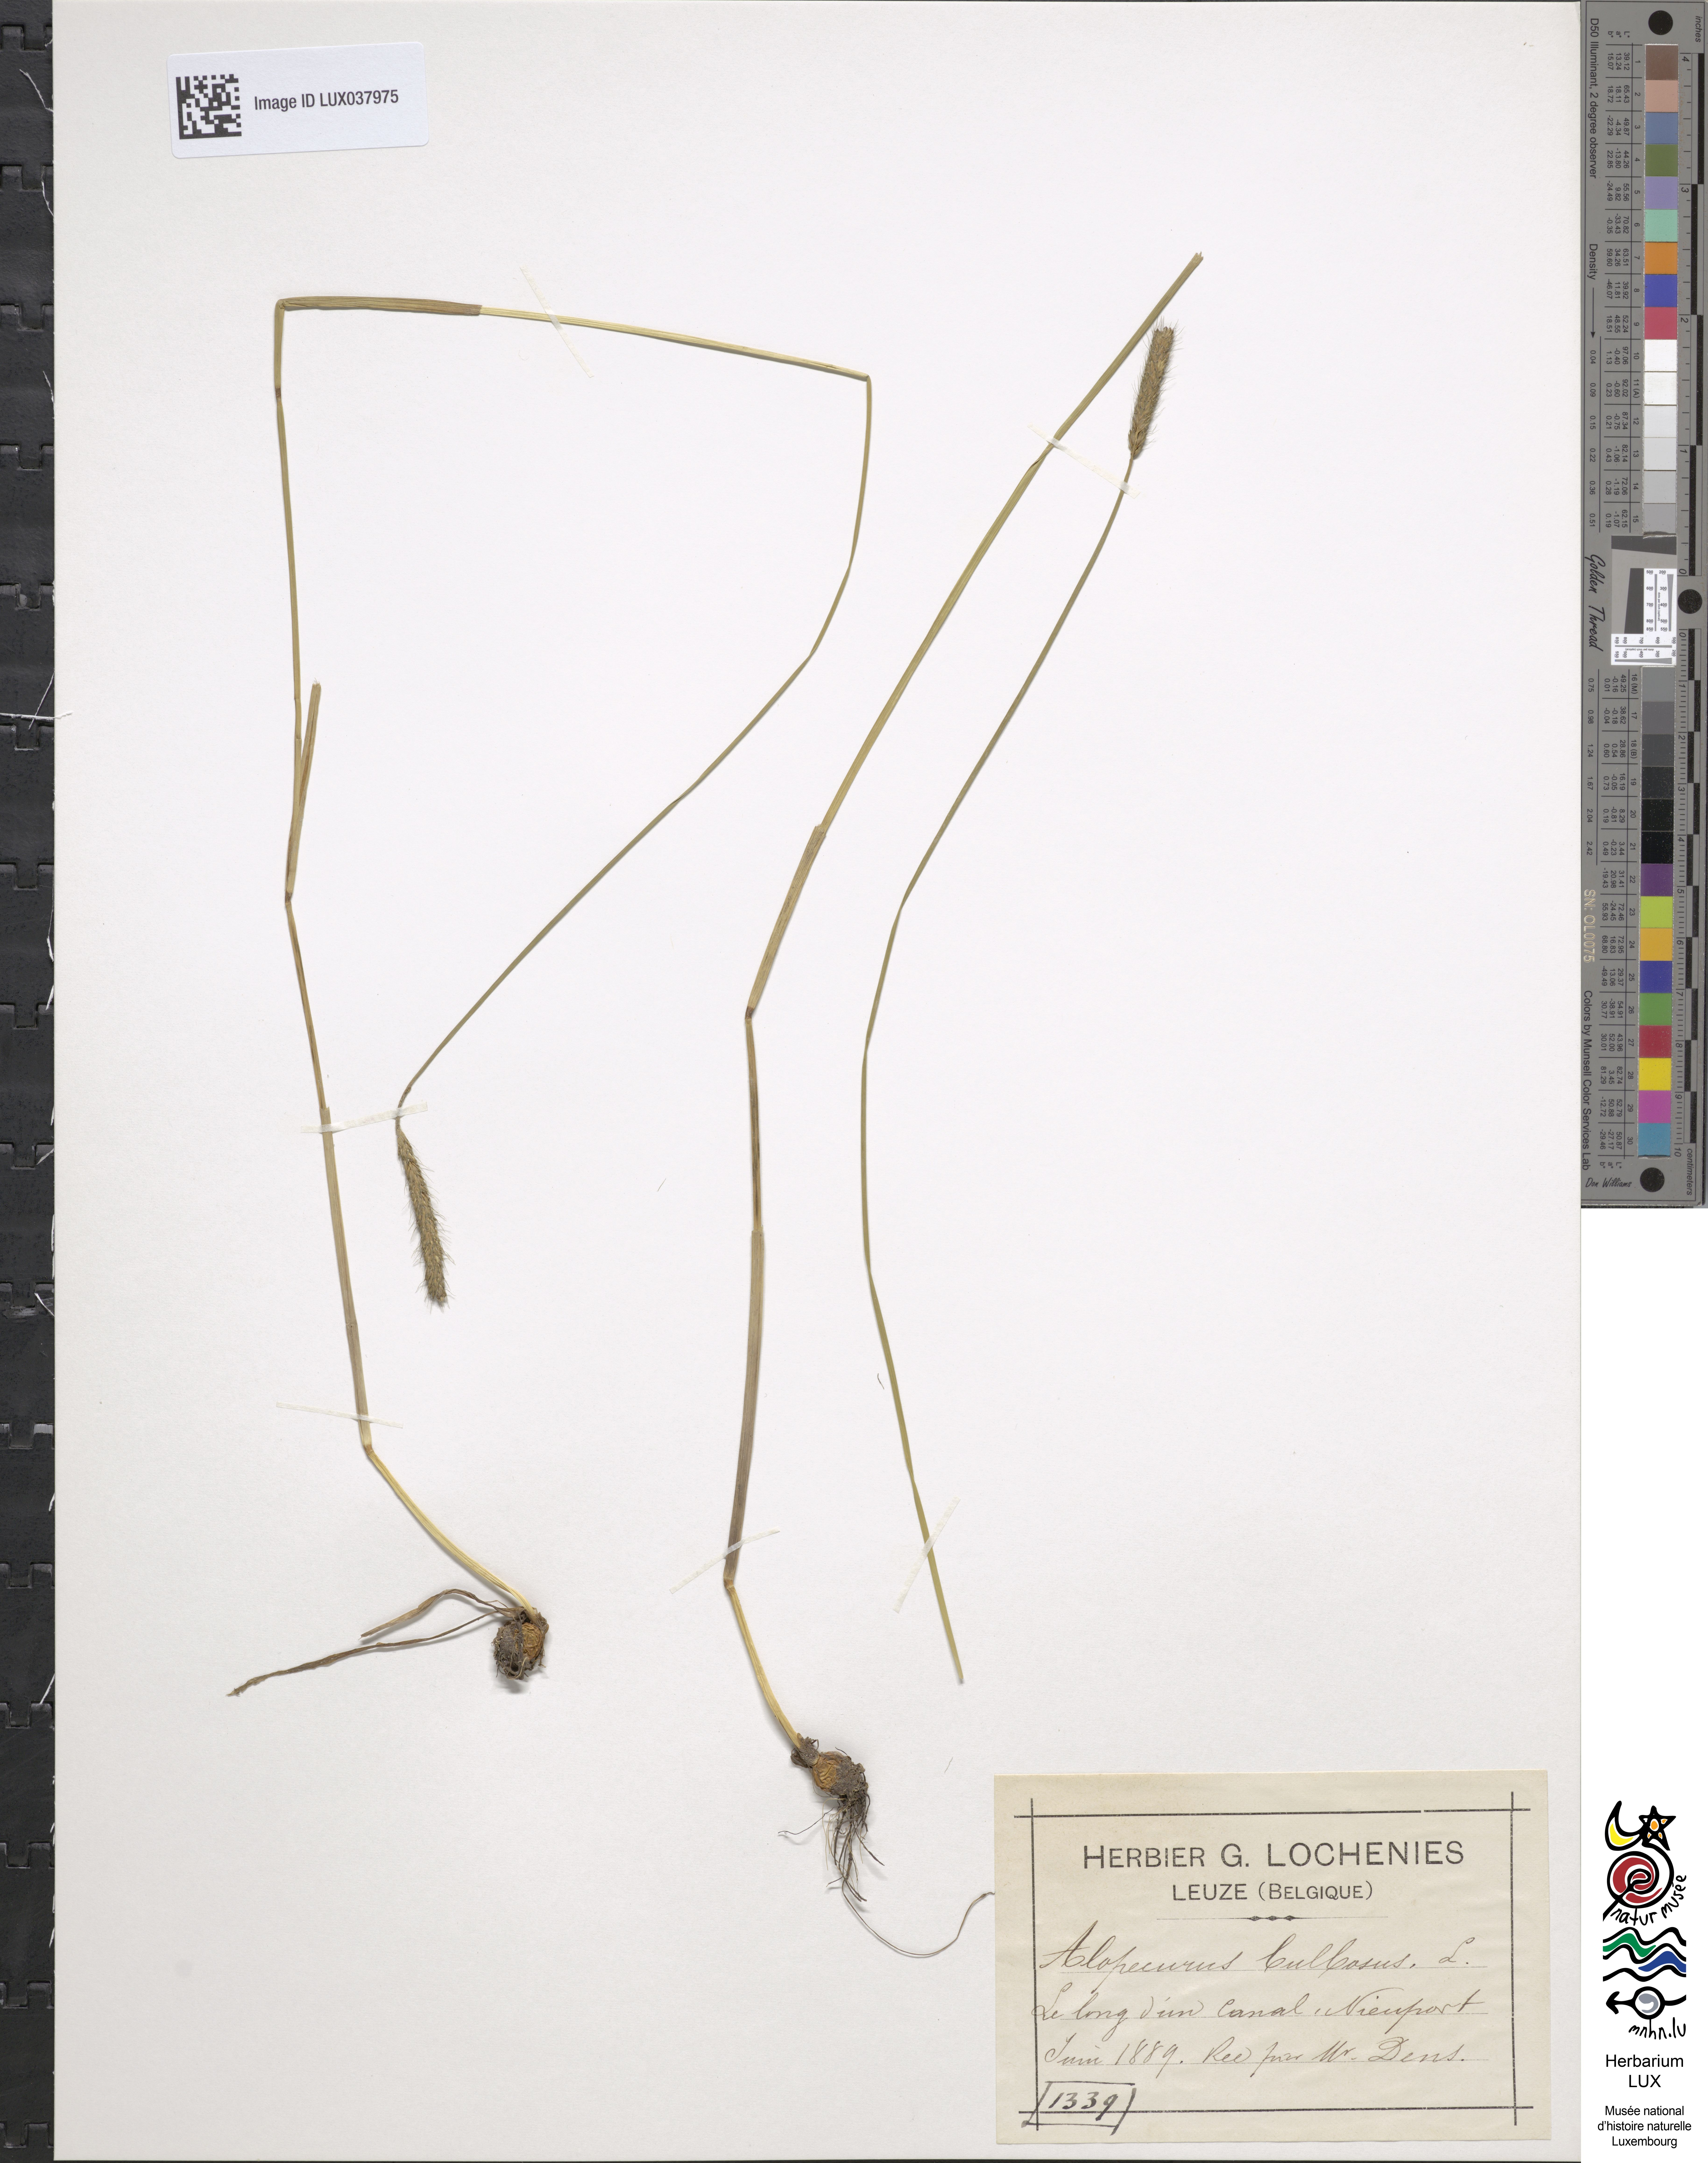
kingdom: Plantae
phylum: Tracheophyta
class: Liliopsida
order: Poales
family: Poaceae
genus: Alopecurus
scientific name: Alopecurus bulbosus
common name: Bulbous foxtail
